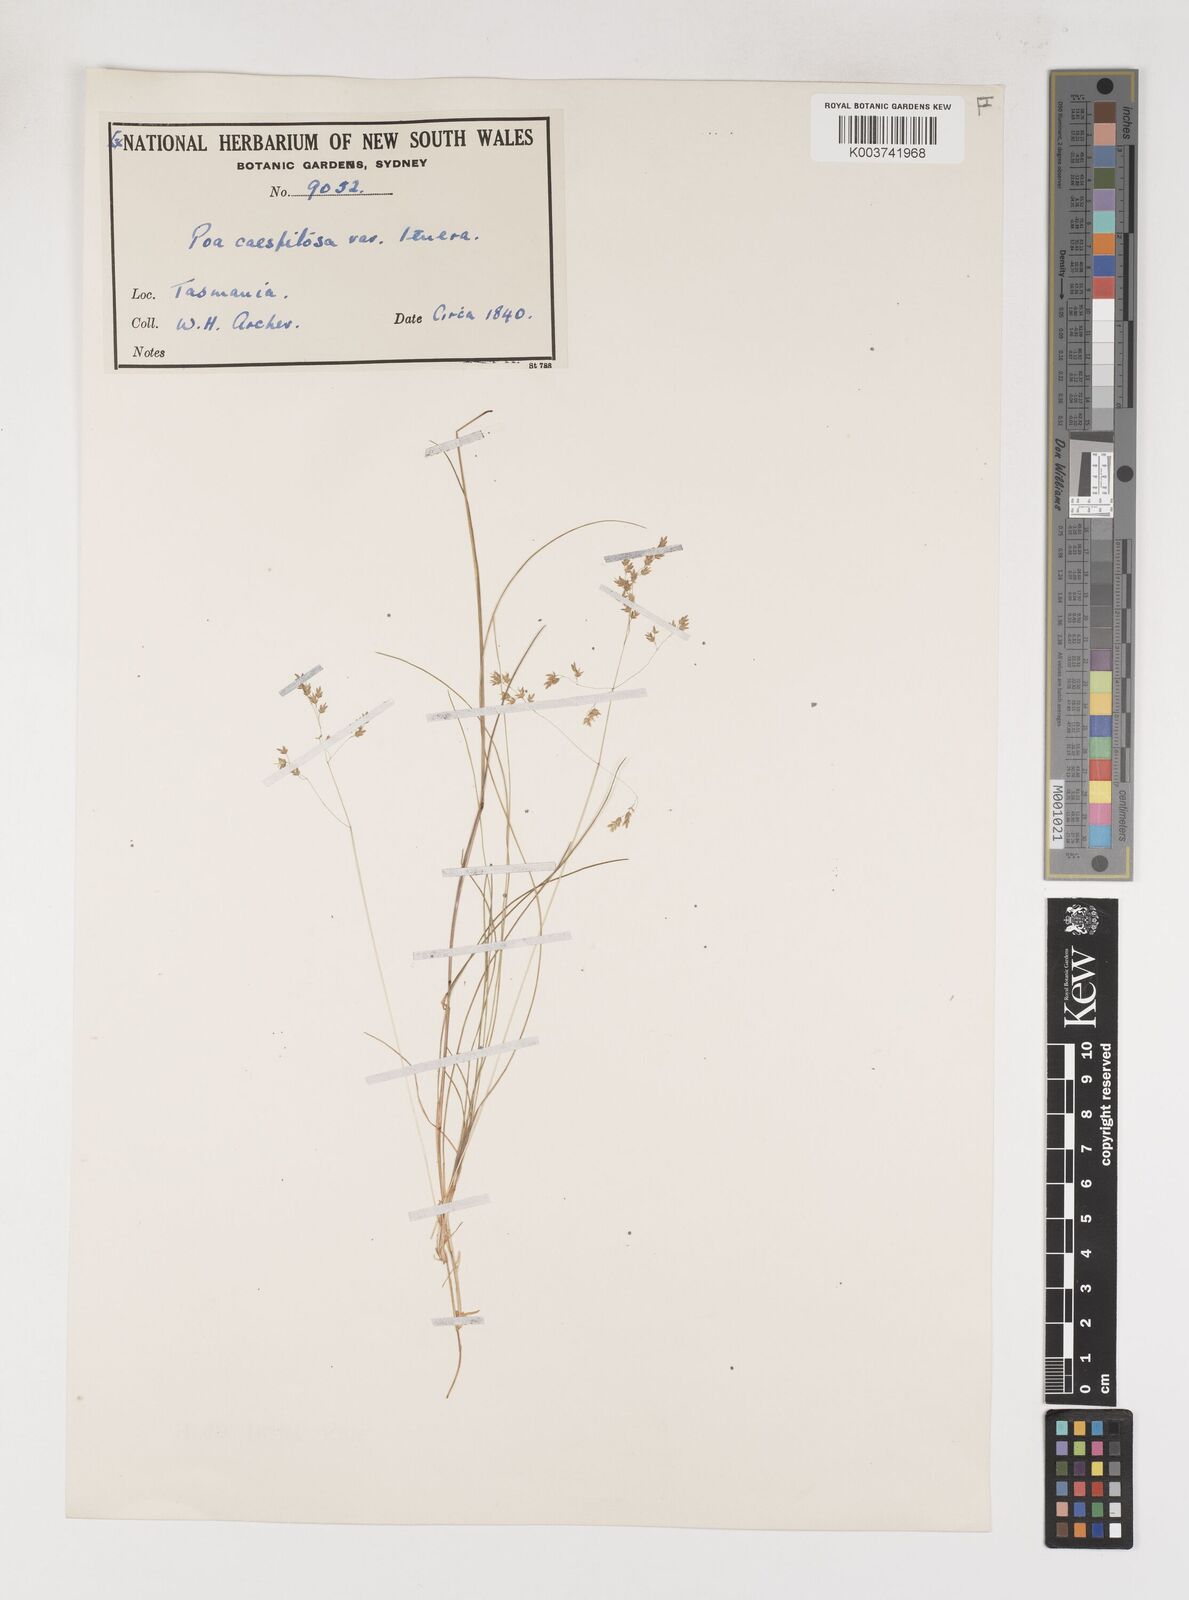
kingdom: Plantae
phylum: Tracheophyta
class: Liliopsida
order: Poales
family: Poaceae
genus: Poa
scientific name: Poa tenera
